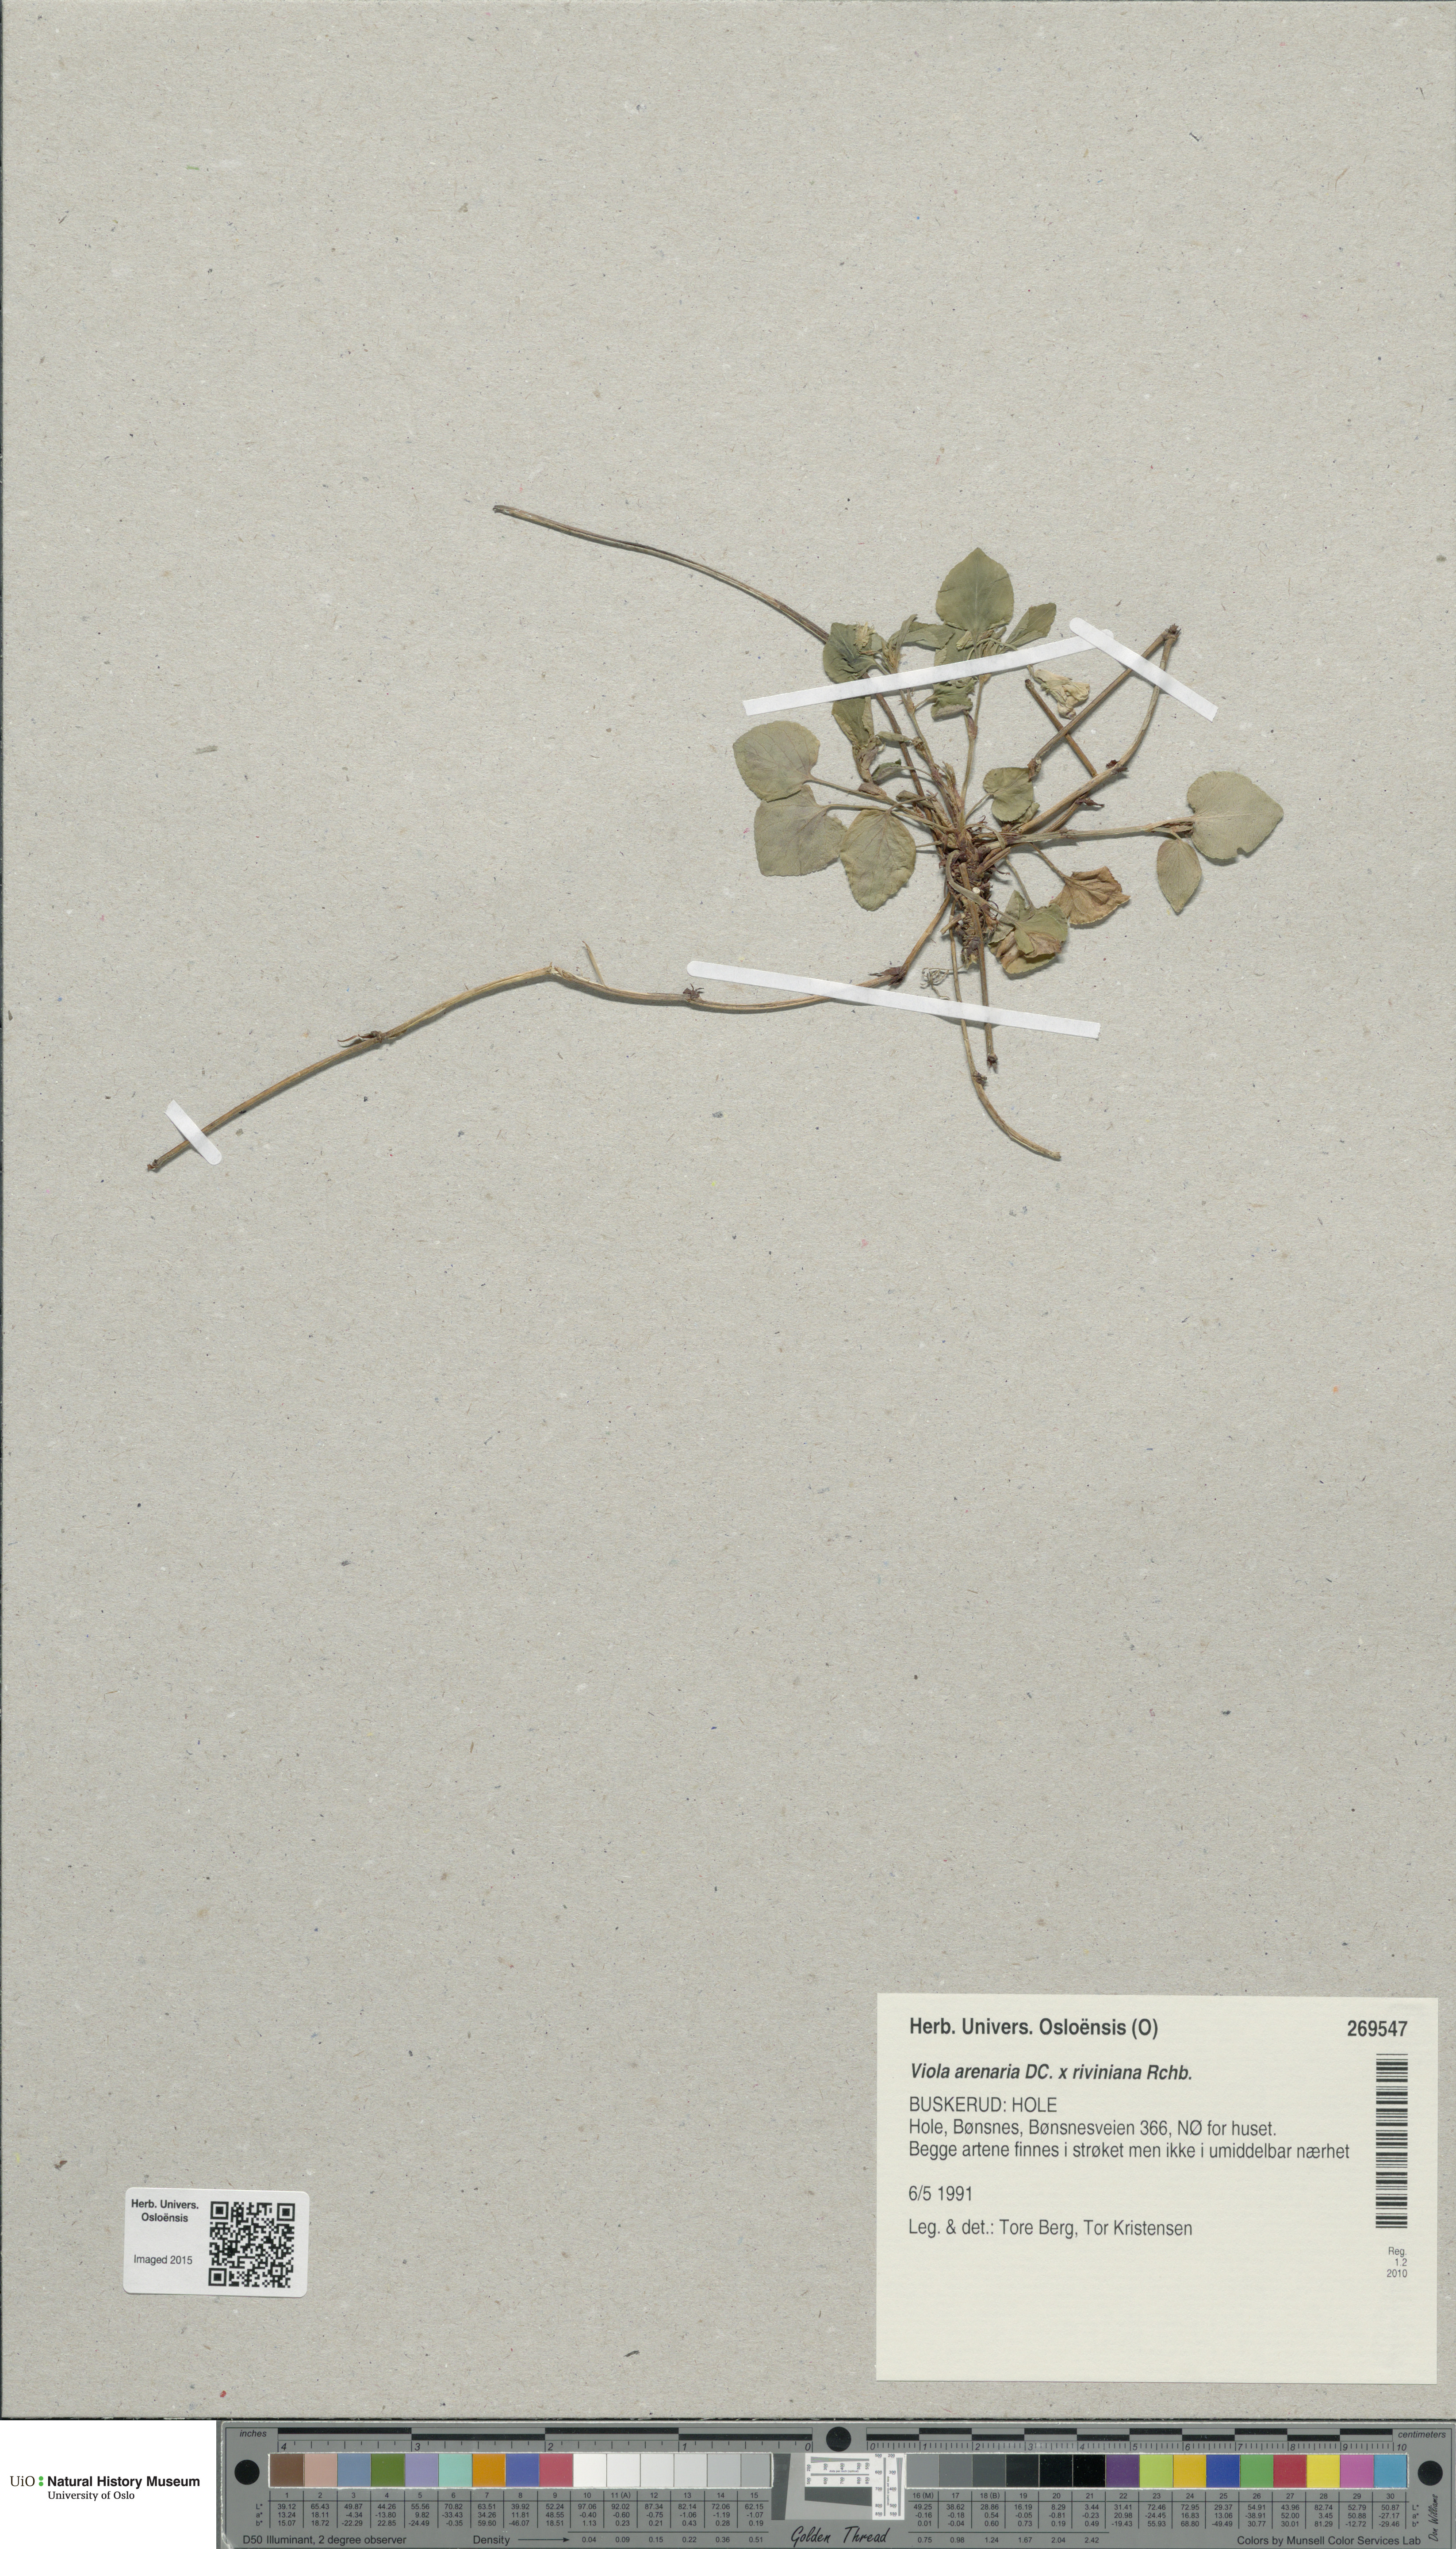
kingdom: Plantae
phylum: Tracheophyta
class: Magnoliopsida
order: Malpighiales
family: Violaceae
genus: Viola
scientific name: Viola
